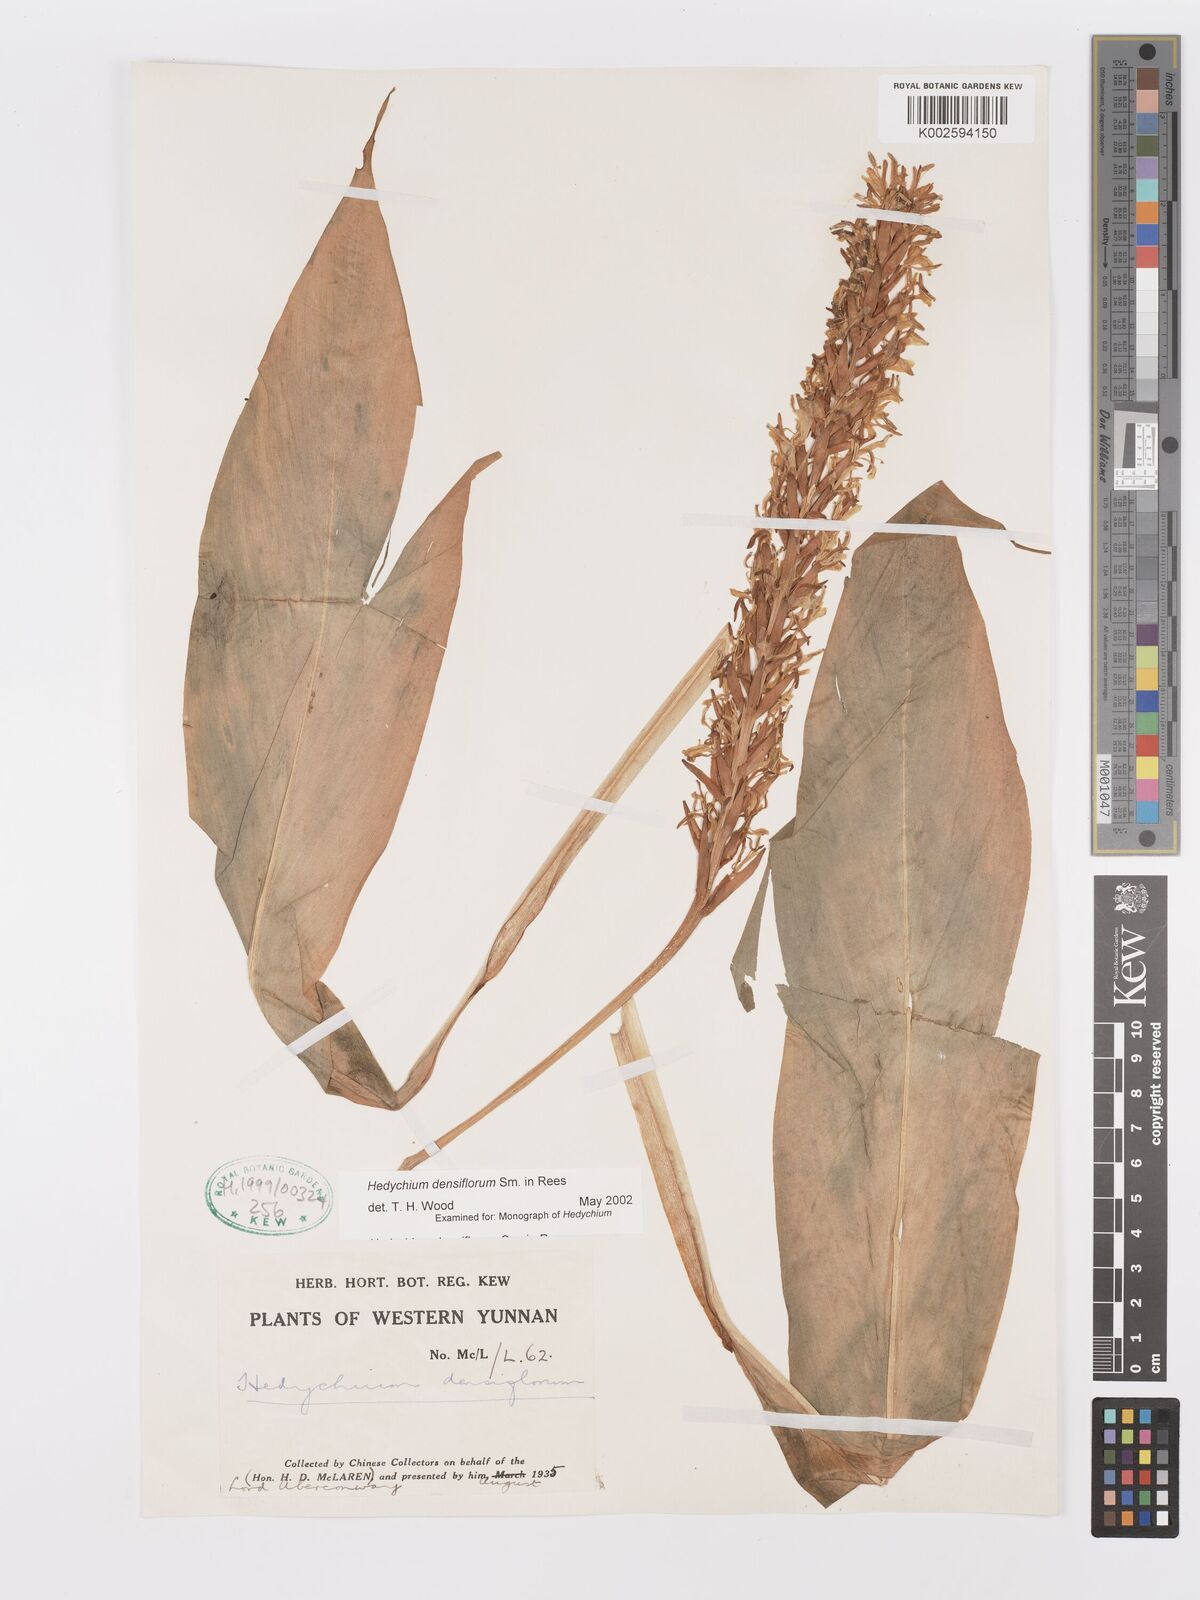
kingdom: Plantae
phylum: Tracheophyta
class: Liliopsida
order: Zingiberales
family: Zingiberaceae
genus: Hedychium
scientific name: Hedychium densiflorum
